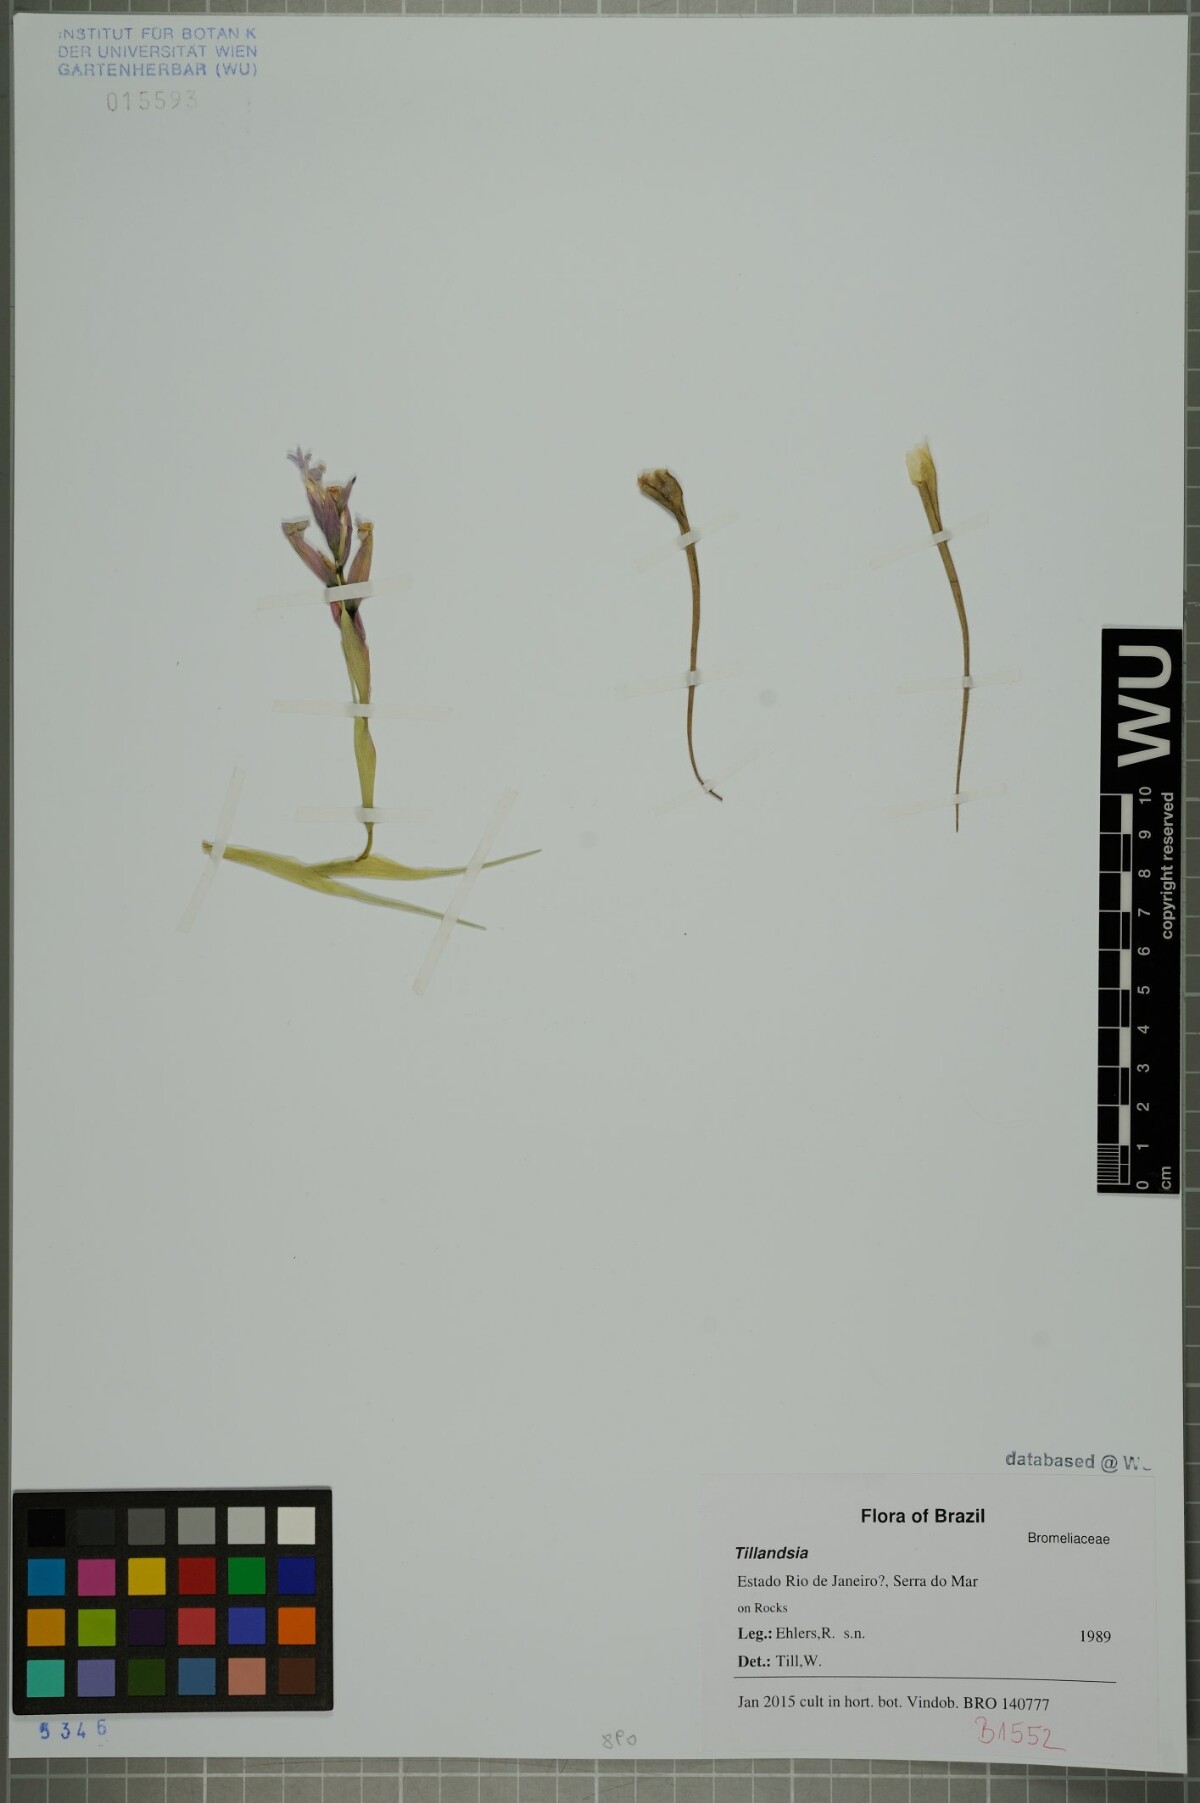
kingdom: Plantae
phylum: Tracheophyta
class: Liliopsida
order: Poales
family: Bromeliaceae
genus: Tillandsia
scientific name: Tillandsia
